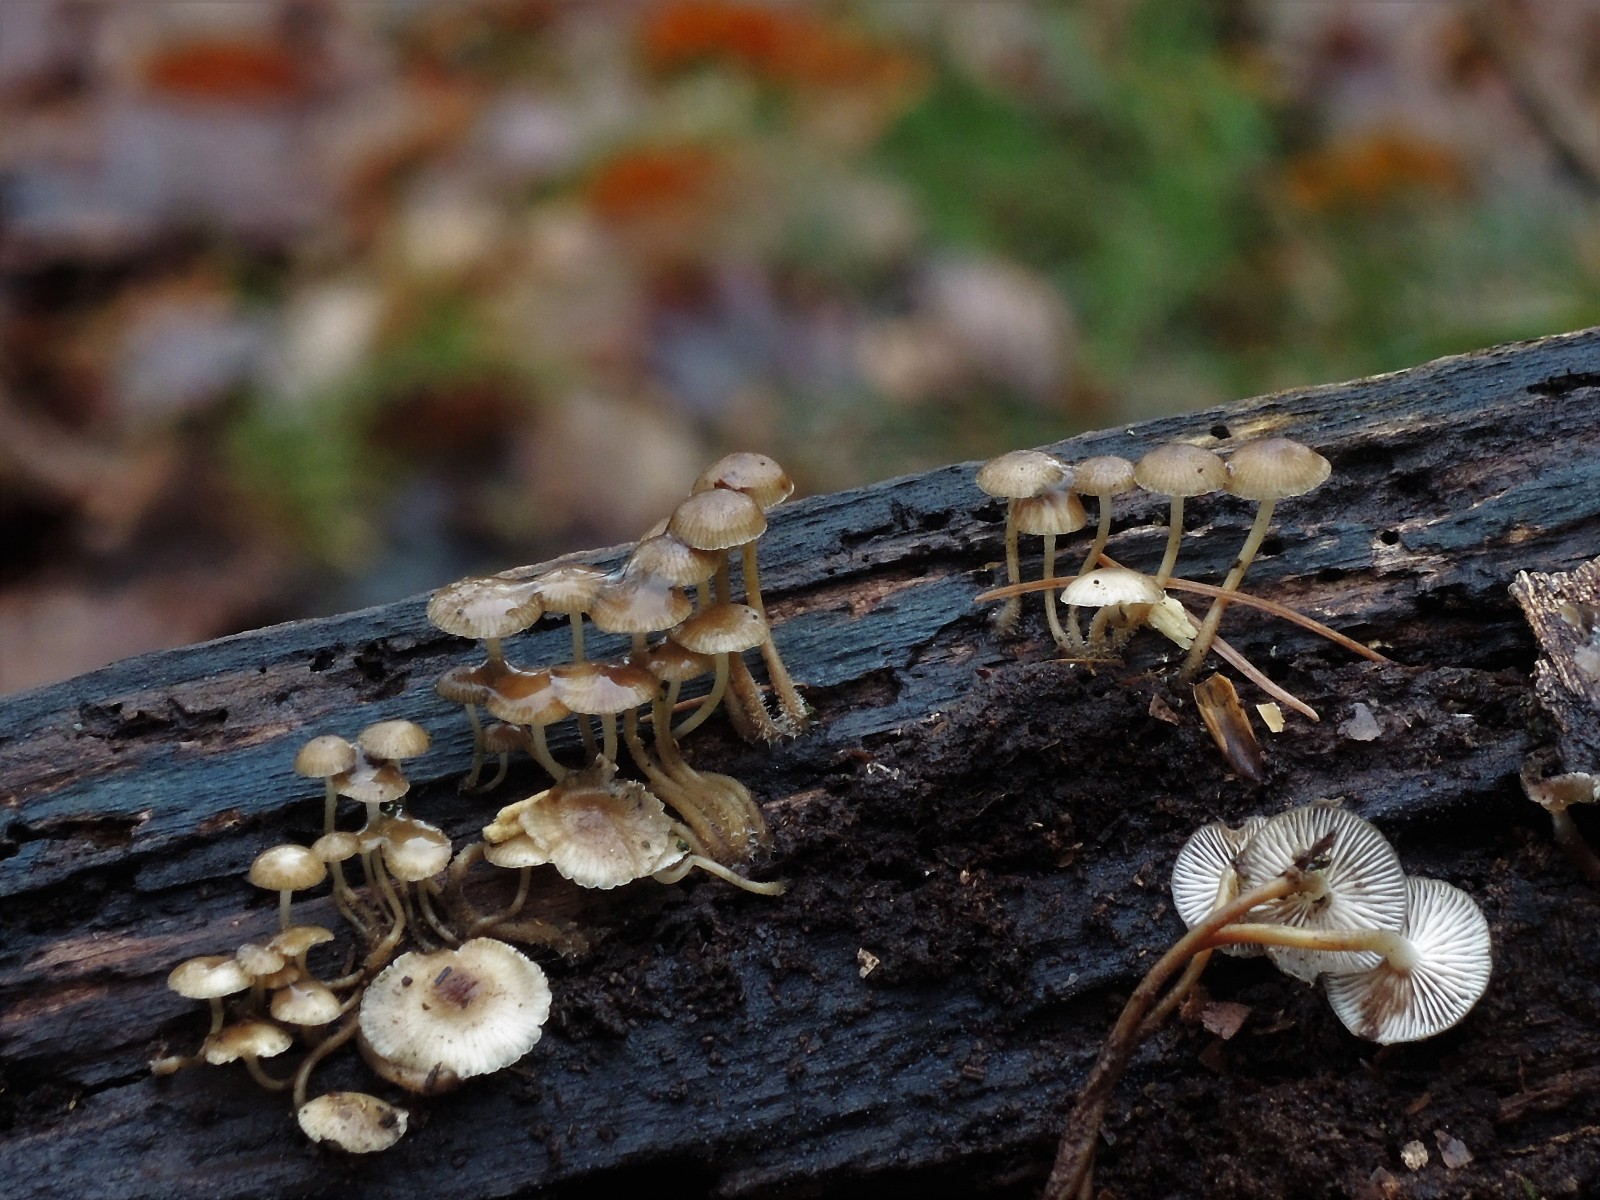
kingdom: Fungi
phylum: Basidiomycota
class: Agaricomycetes
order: Agaricales
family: Mycenaceae
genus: Mycena
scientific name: Mycena tintinnabulum
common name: vinter-huesvamp
